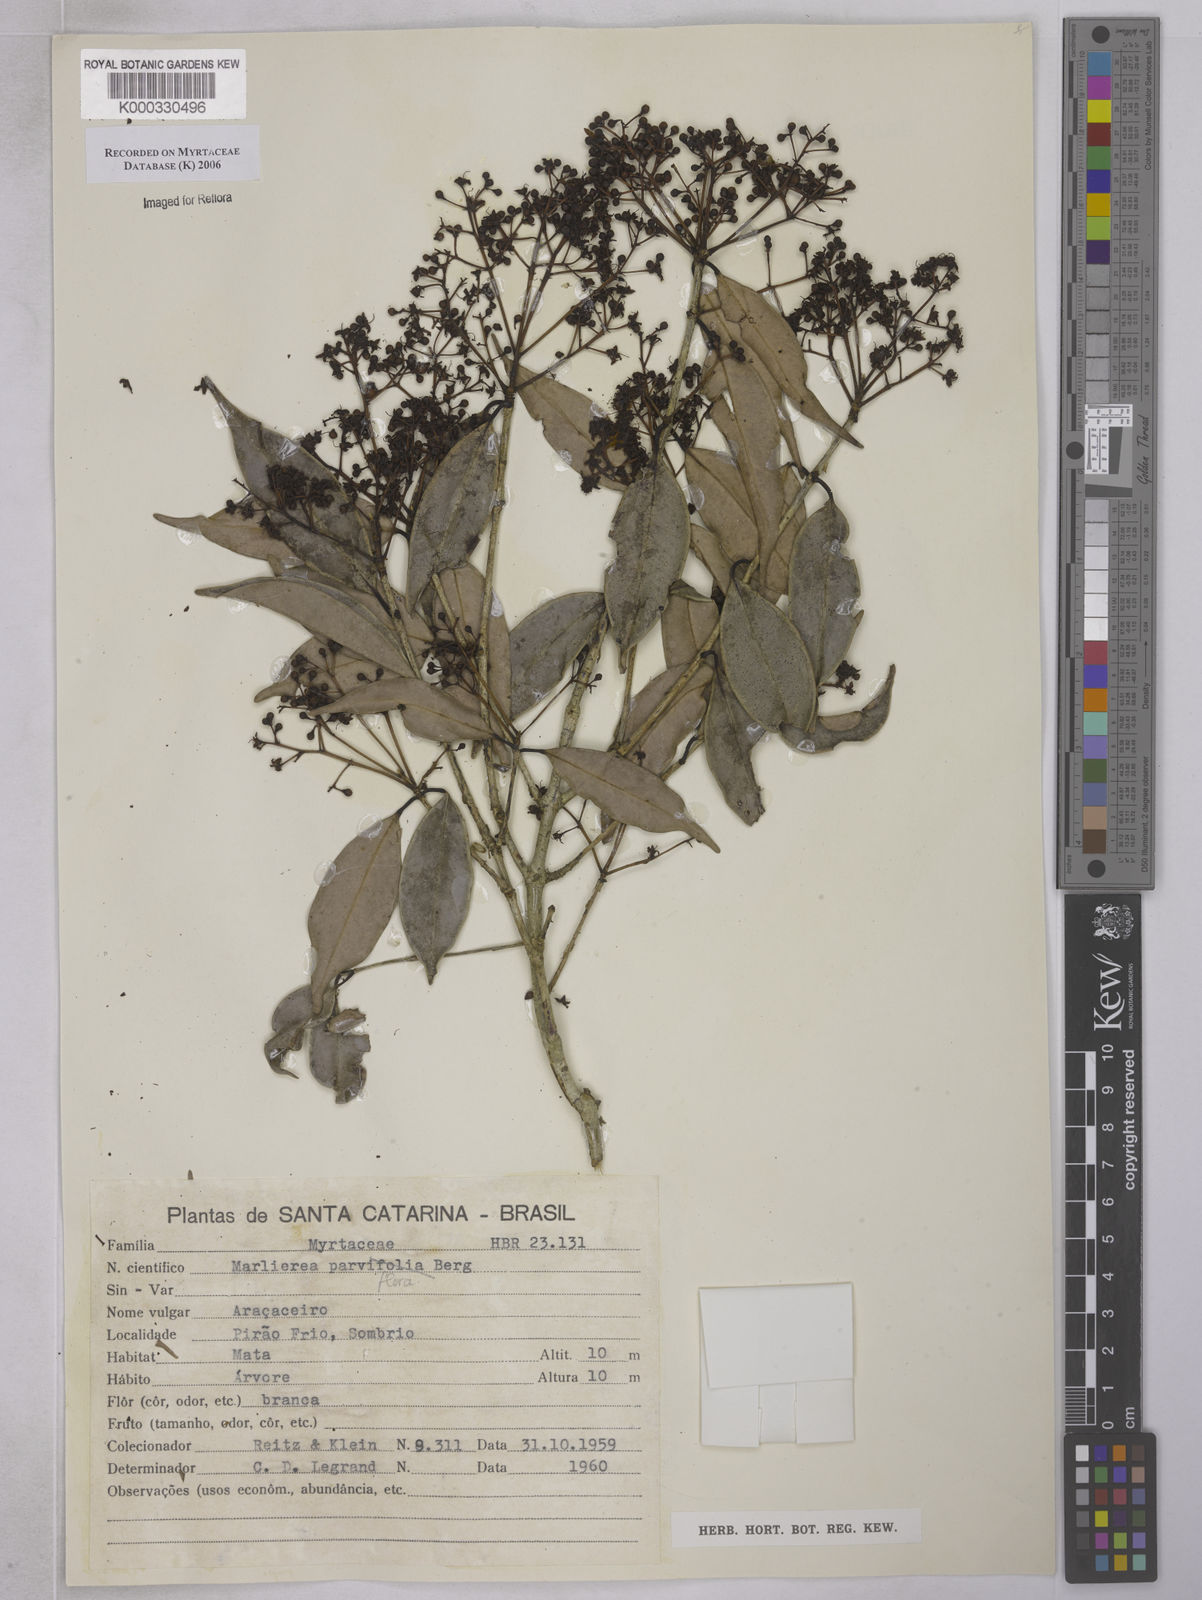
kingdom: Plantae
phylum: Tracheophyta
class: Magnoliopsida
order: Myrtales
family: Myrtaceae
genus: Marlierea
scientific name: Marlierea
